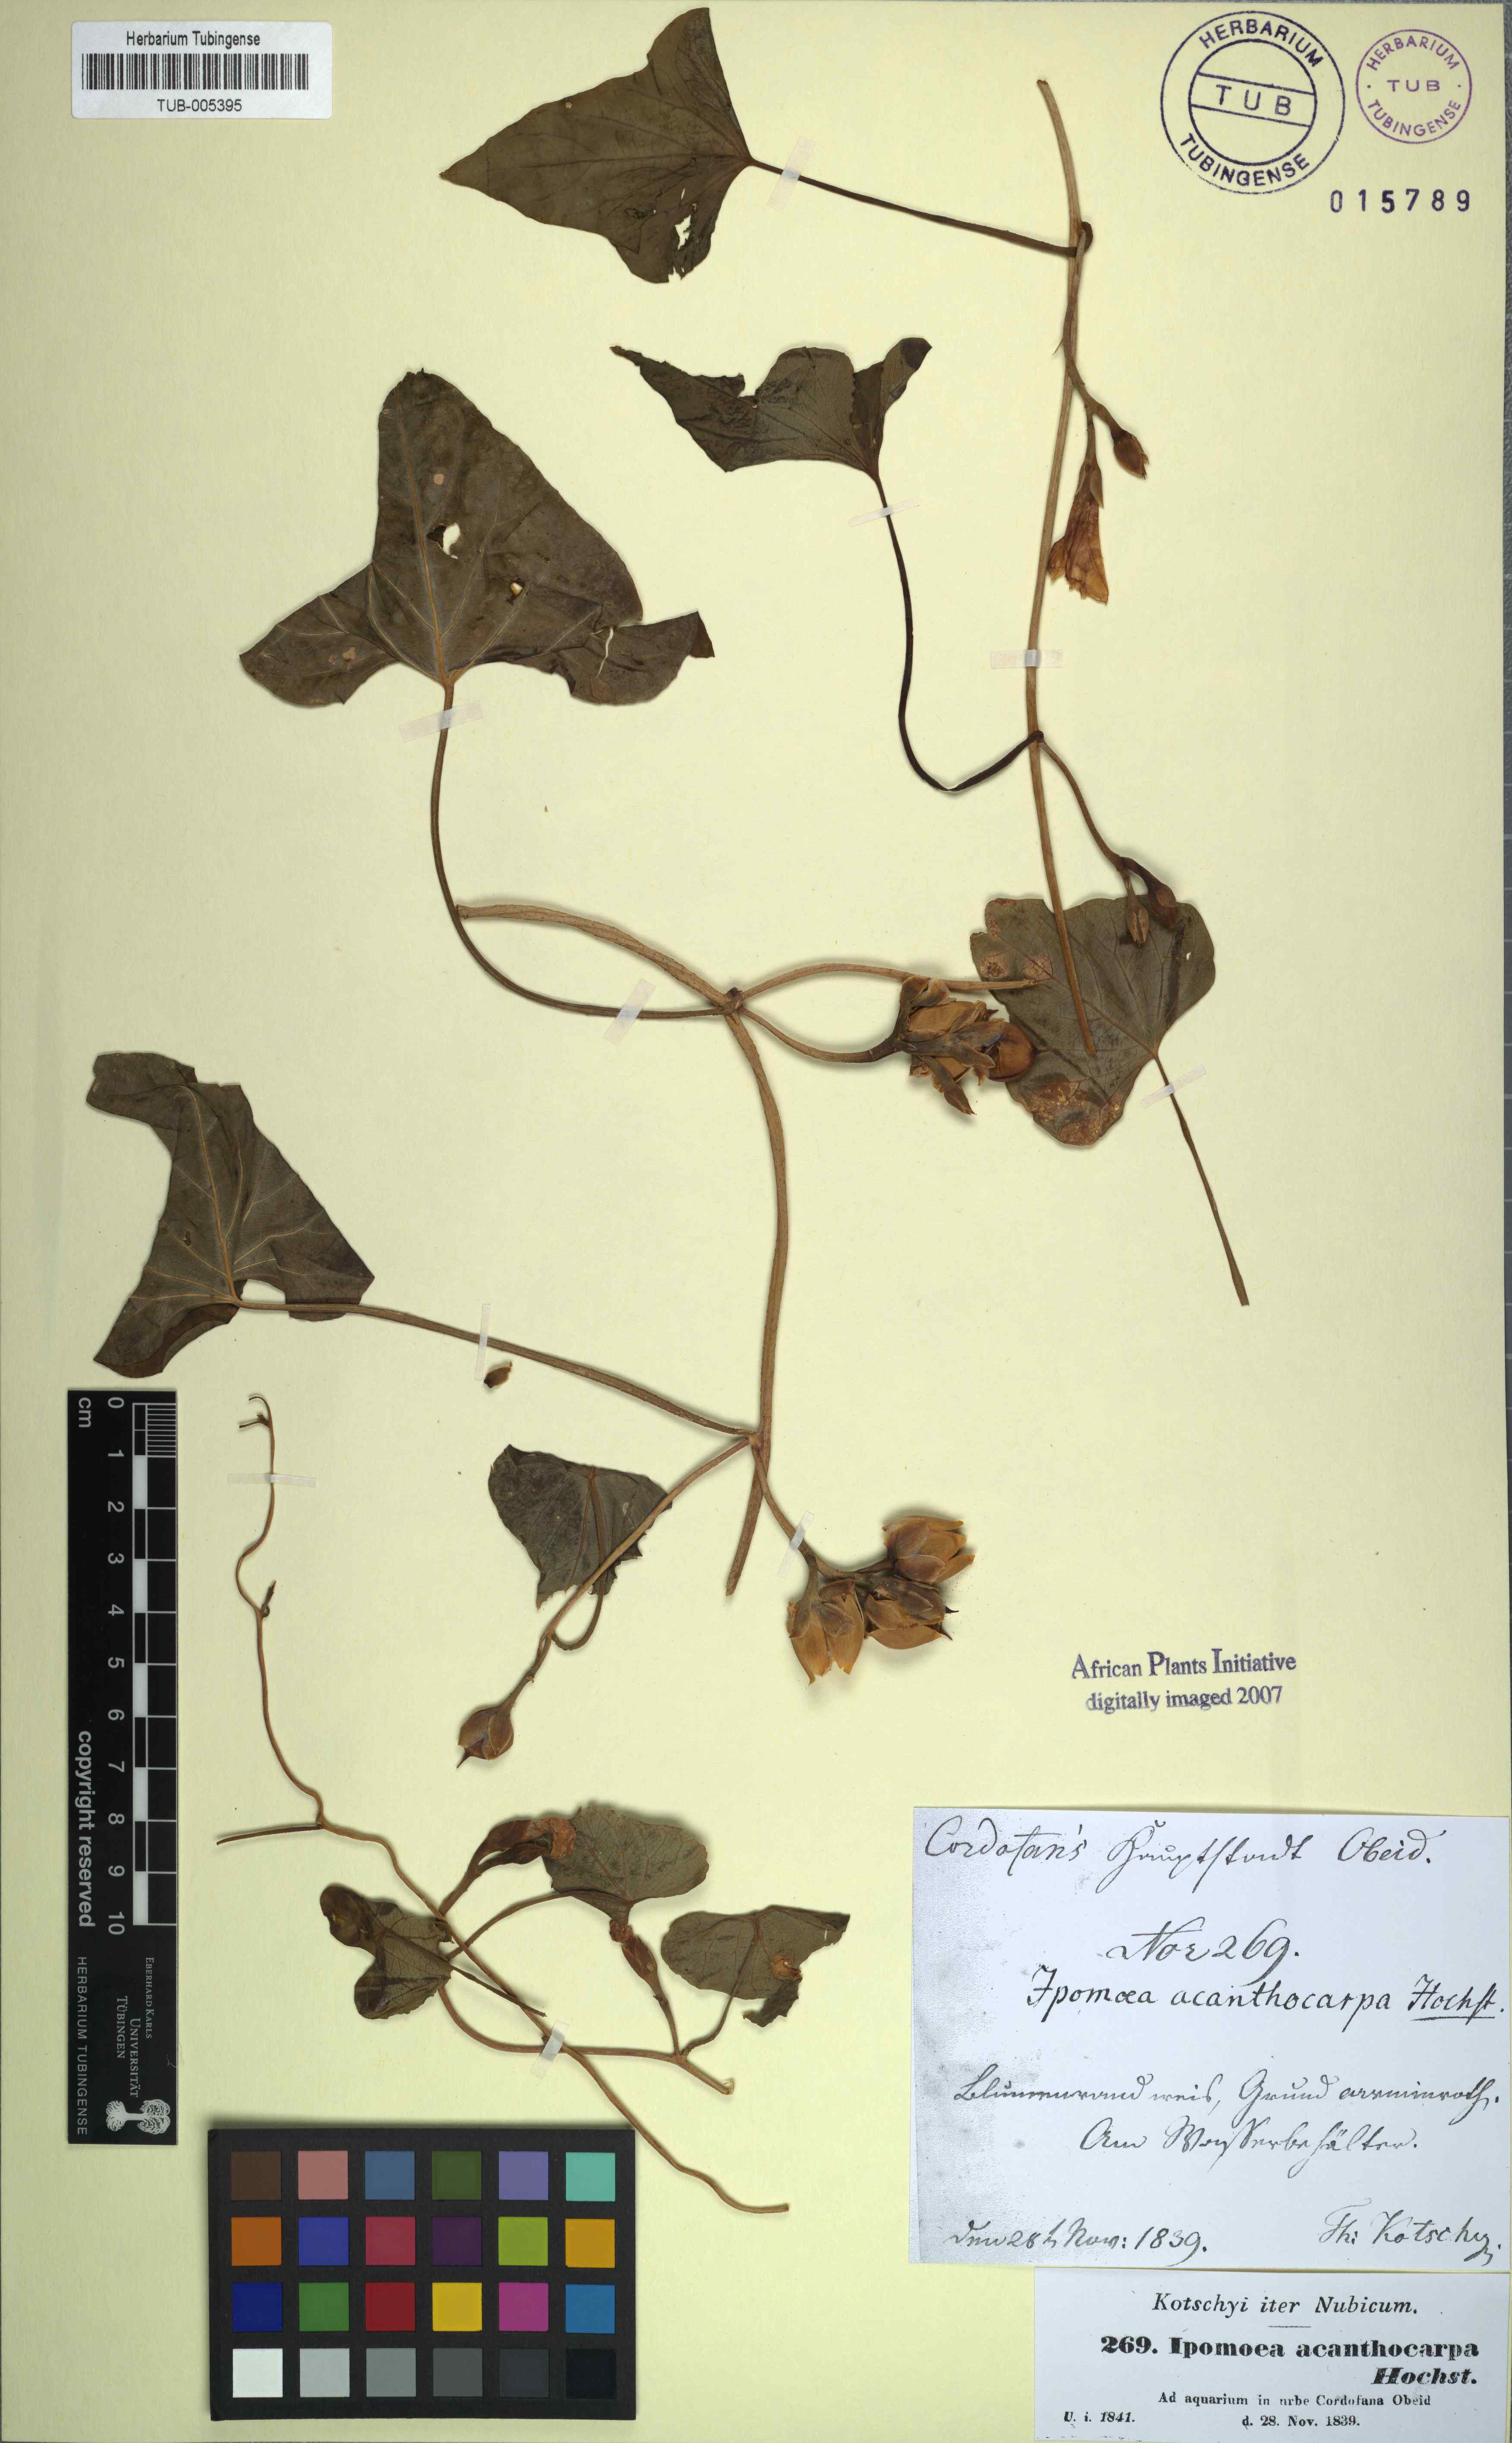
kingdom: Plantae
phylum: Tracheophyta
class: Magnoliopsida
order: Solanales
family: Convolvulaceae
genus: Ipomoea
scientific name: Ipomoea acanthocarpa
